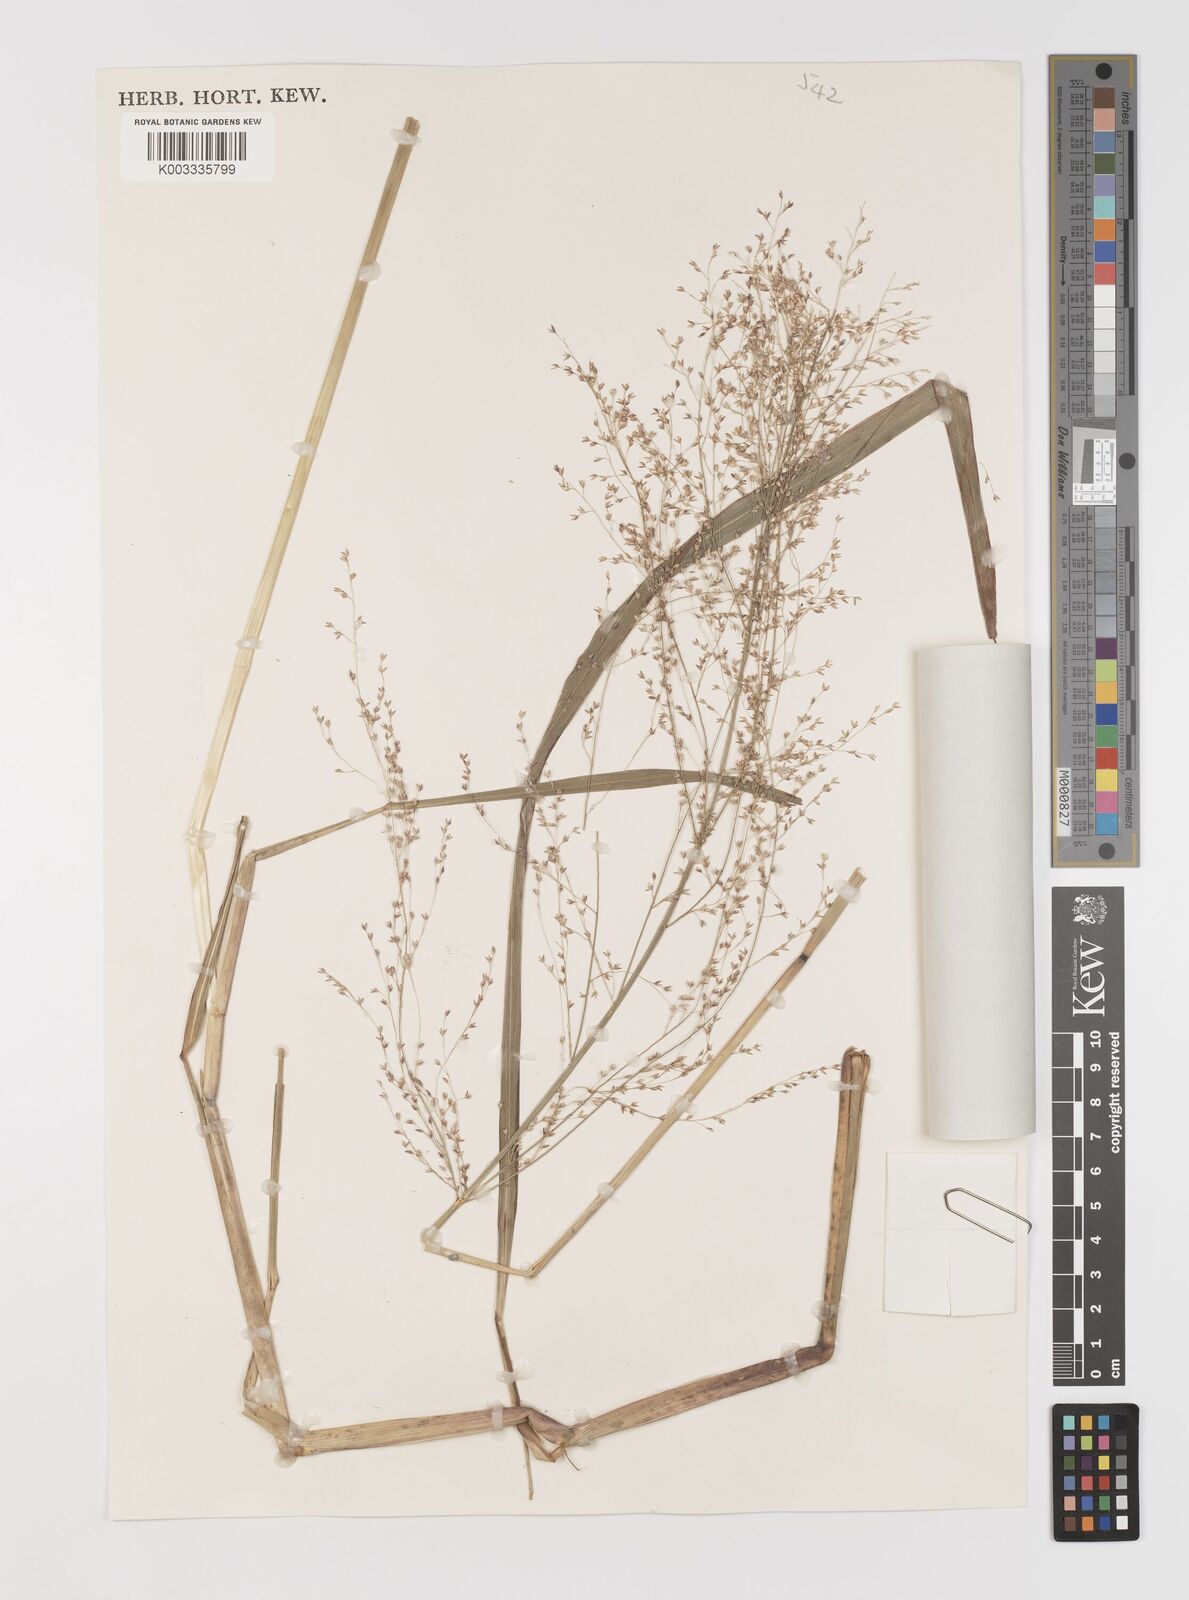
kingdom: Plantae
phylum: Tracheophyta
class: Liliopsida
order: Poales
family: Poaceae
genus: Panicum
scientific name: Panicum fluviicola
